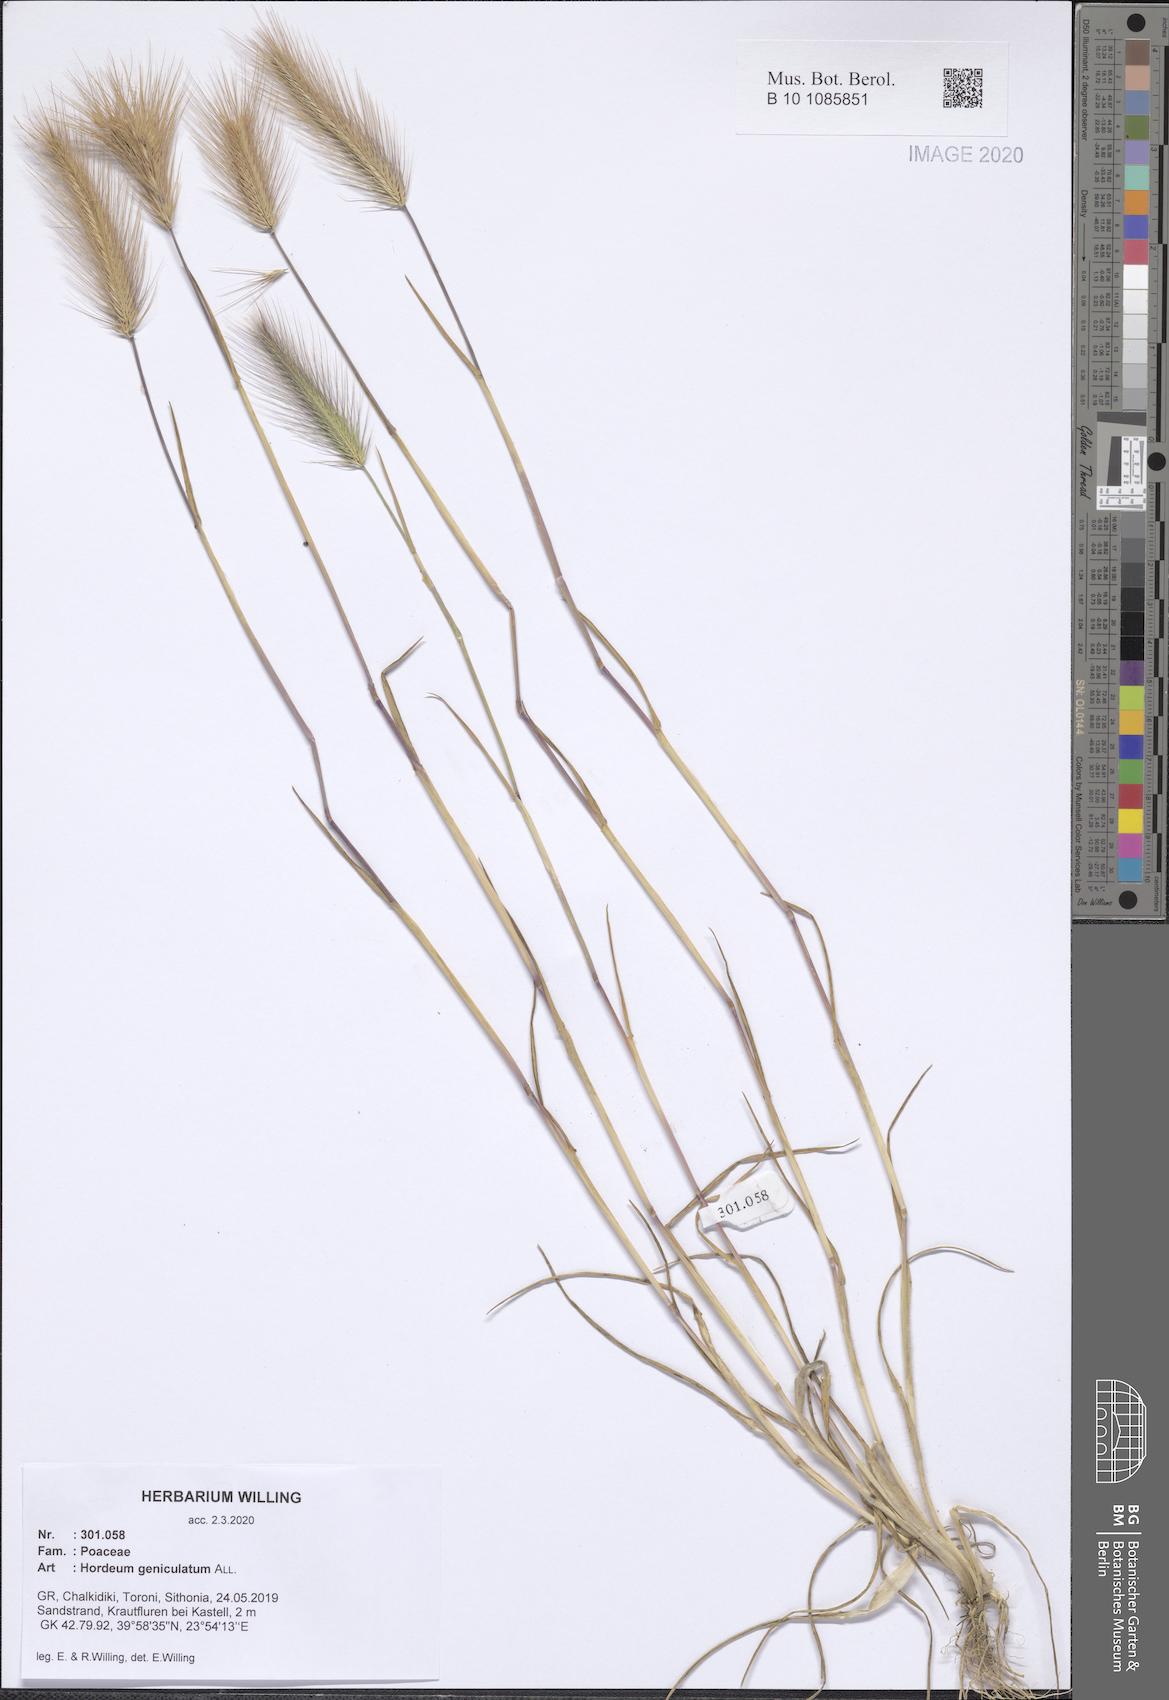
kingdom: Plantae
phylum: Tracheophyta
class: Liliopsida
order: Poales
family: Poaceae
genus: Hordeum
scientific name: Hordeum marinum
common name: Sea barley
